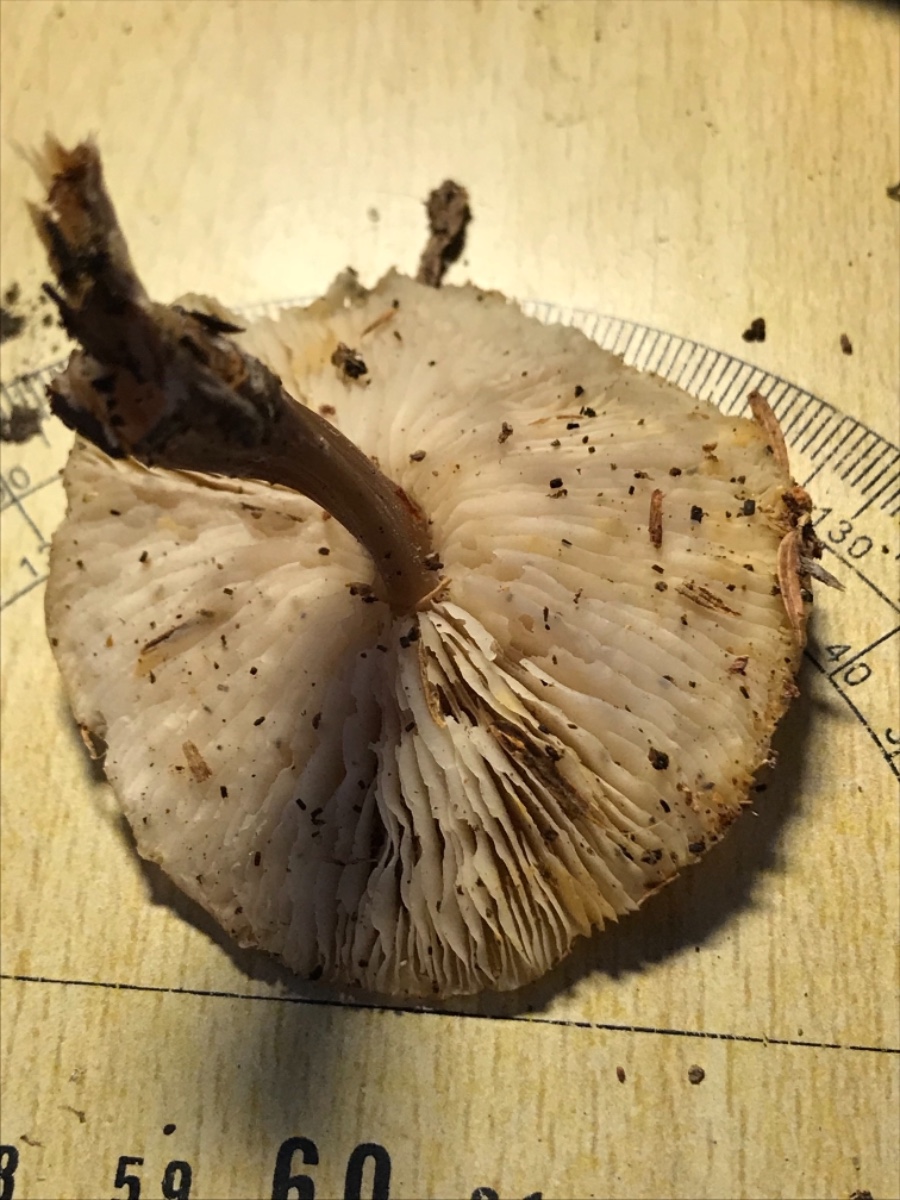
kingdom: Fungi
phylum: Basidiomycota
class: Agaricomycetes
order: Agaricales
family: Omphalotaceae
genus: Rhodocollybia
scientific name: Rhodocollybia asema
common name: horngrå fladhat
